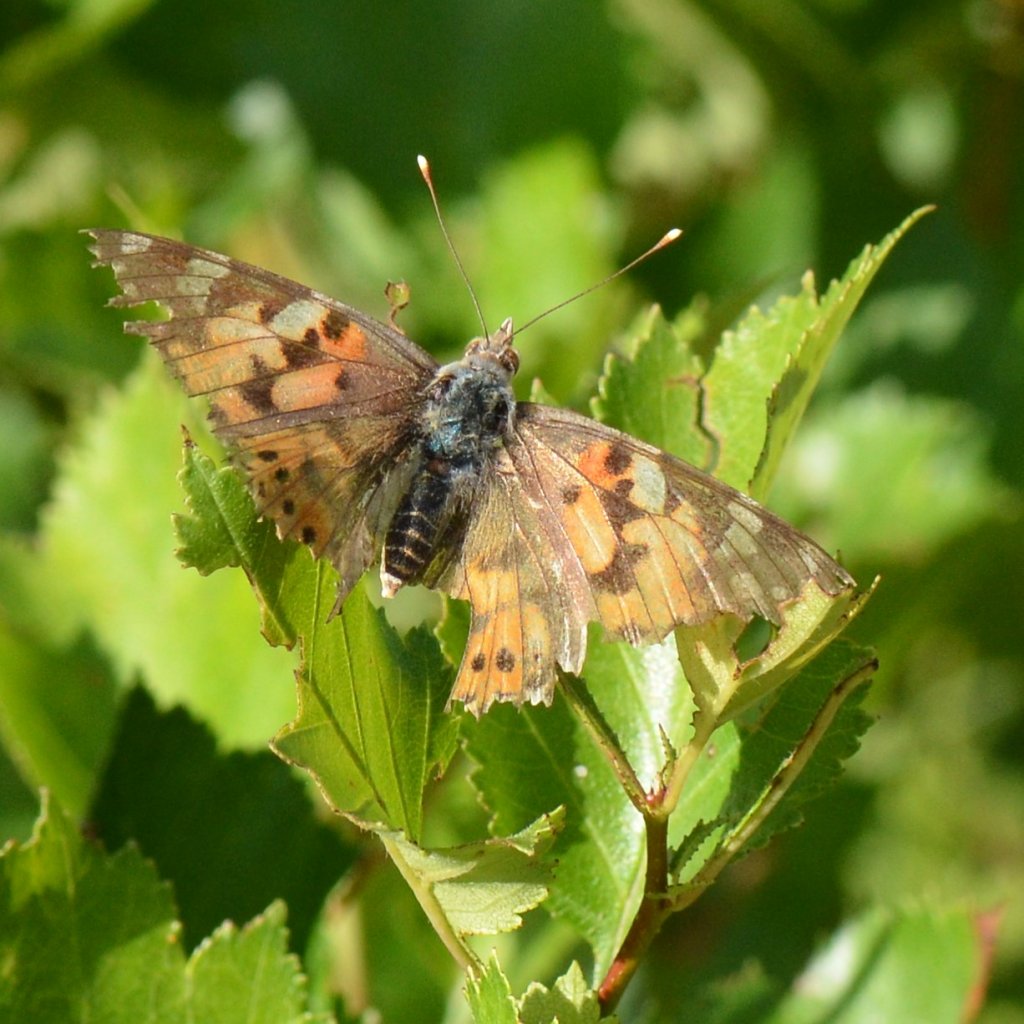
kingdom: Animalia
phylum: Arthropoda
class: Insecta
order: Lepidoptera
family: Nymphalidae
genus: Vanessa
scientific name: Vanessa cardui
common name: Painted Lady
